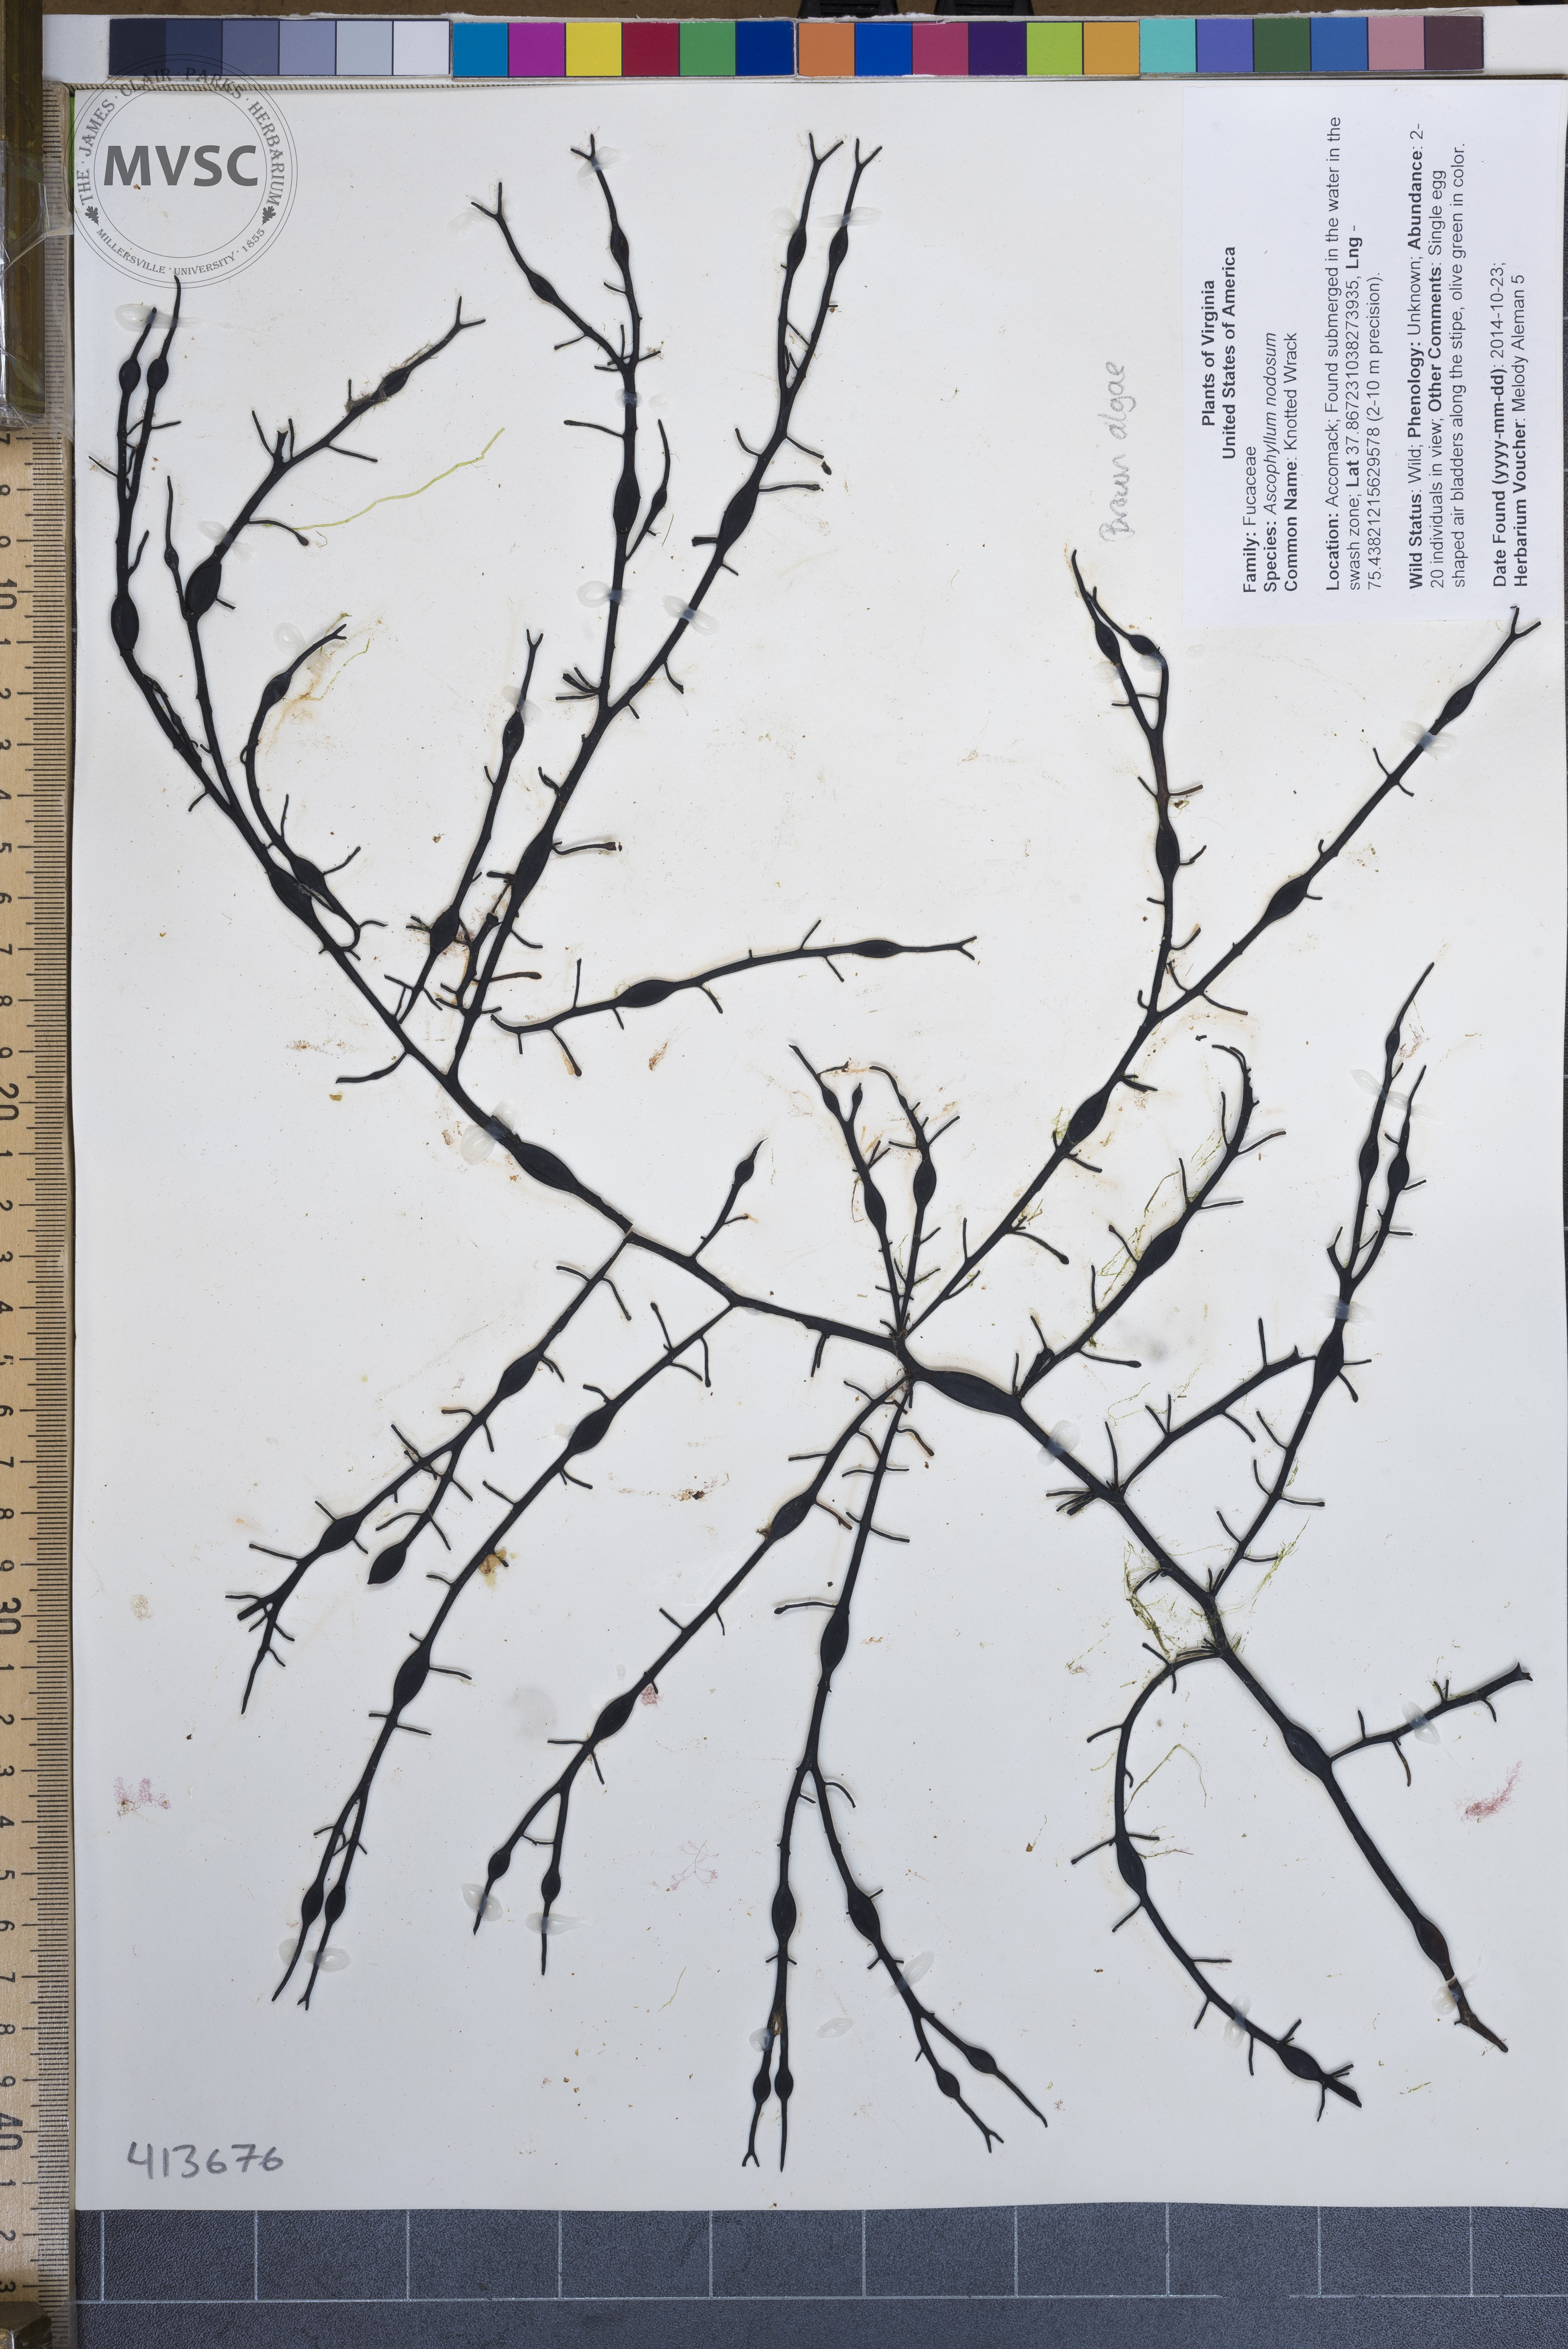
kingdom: Chromista
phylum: Ochrophyta
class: Phaeophyceae
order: Fucales
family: Fucaceae
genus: Ascophyllum
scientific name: Ascophyllum nodosum
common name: Knotted Wrack
